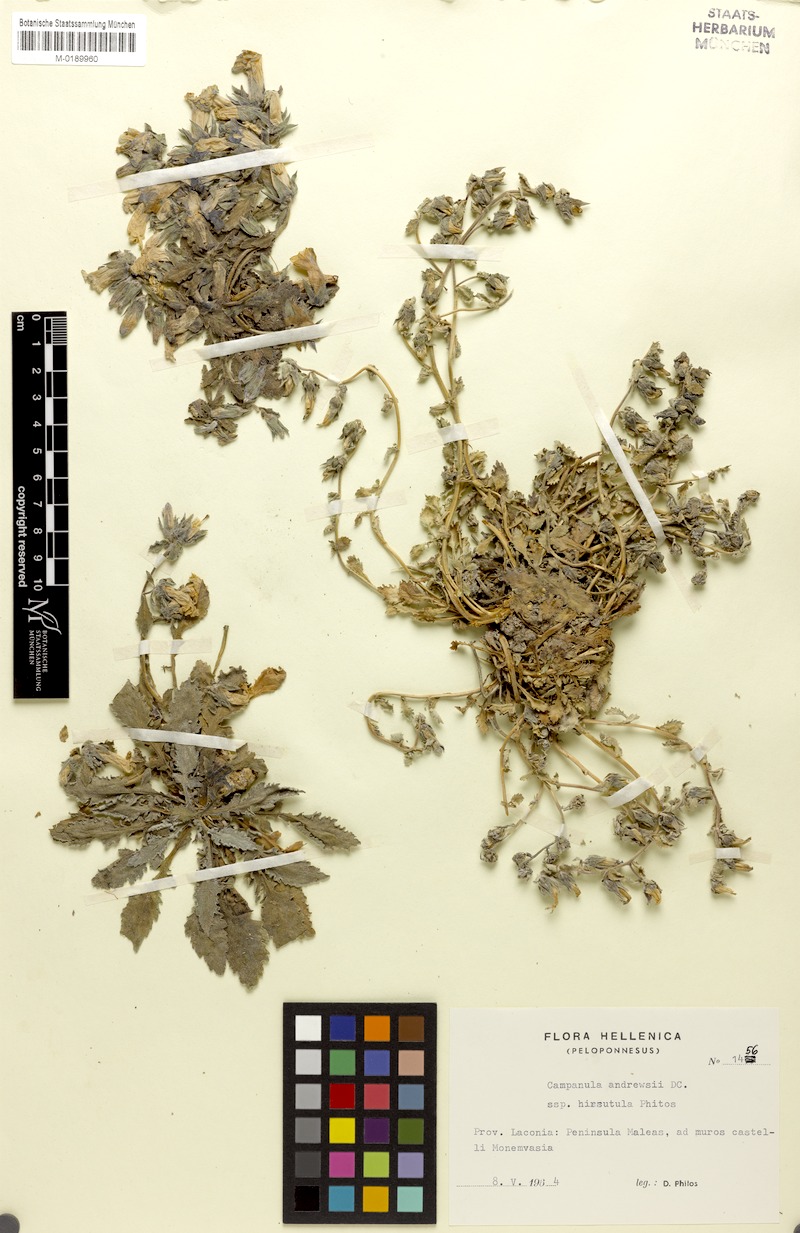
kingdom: Plantae
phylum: Tracheophyta
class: Magnoliopsida
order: Asterales
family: Campanulaceae
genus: Campanula
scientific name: Campanula andrewsii
